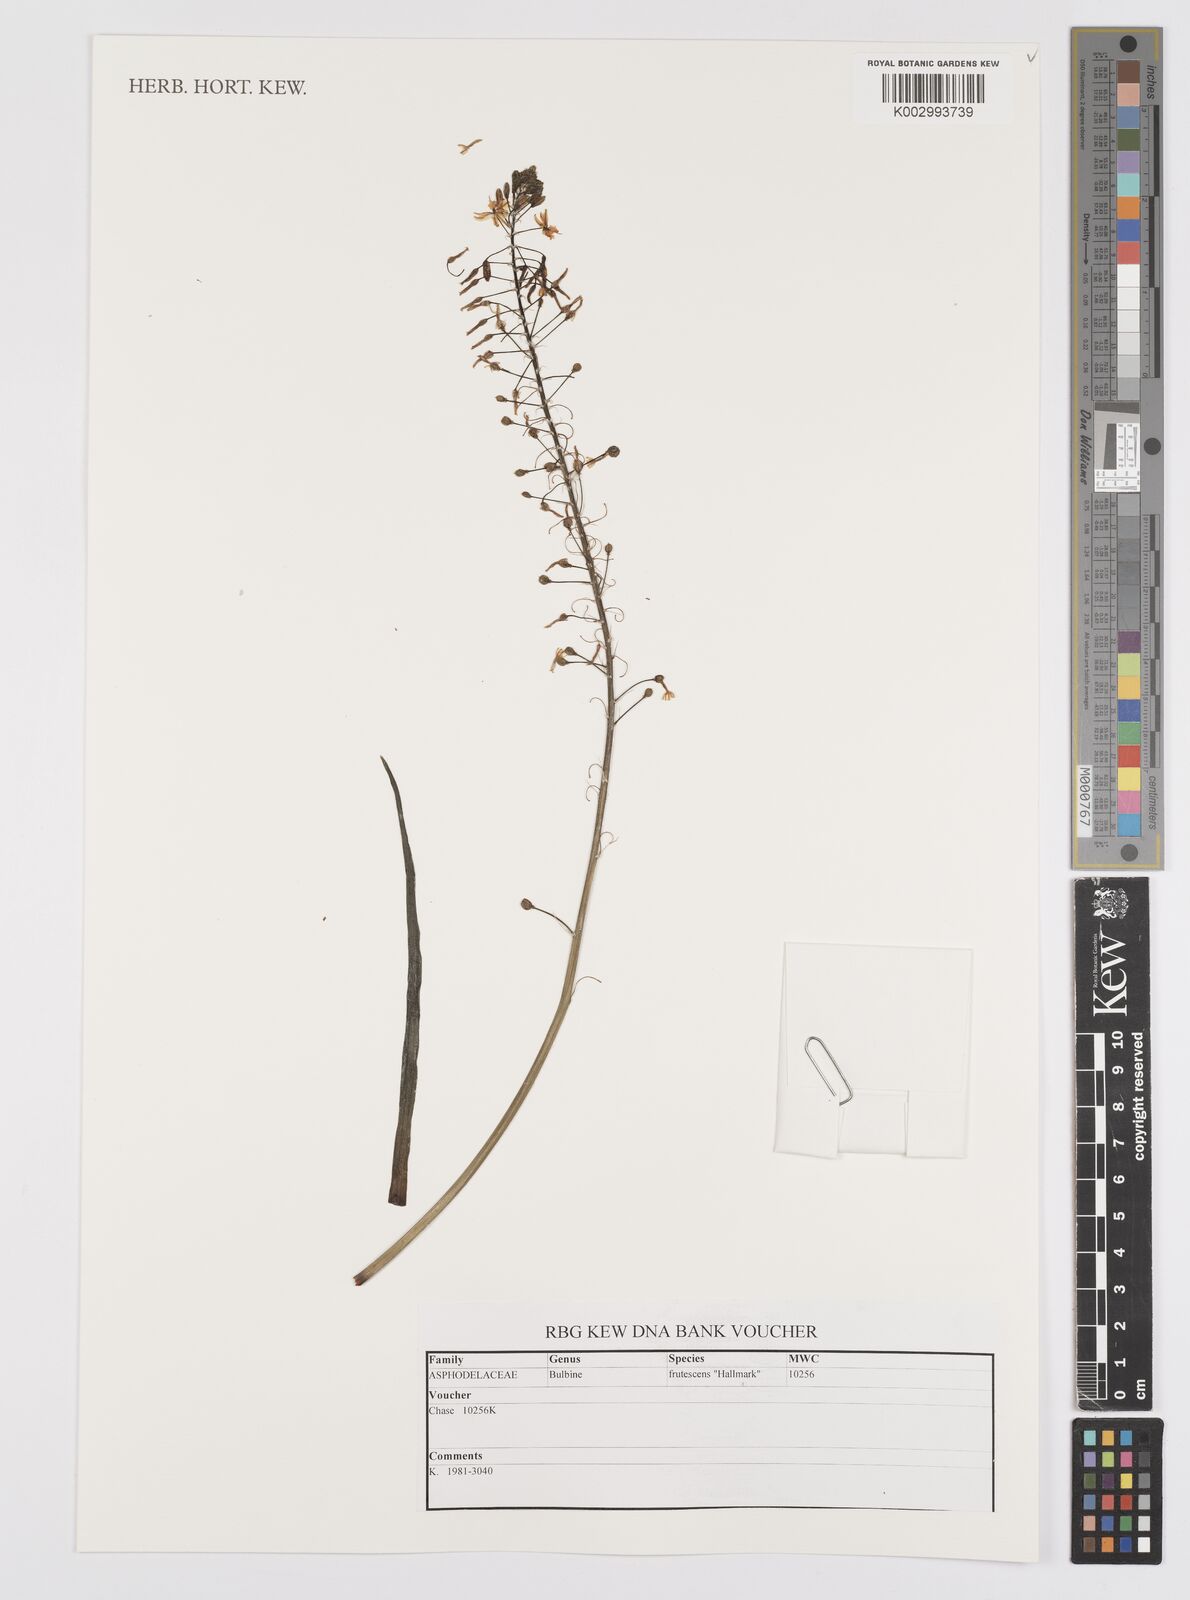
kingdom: Plantae
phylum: Tracheophyta
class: Liliopsida
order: Asparagales
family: Asphodelaceae
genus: Bulbine
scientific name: Bulbine frutescens
